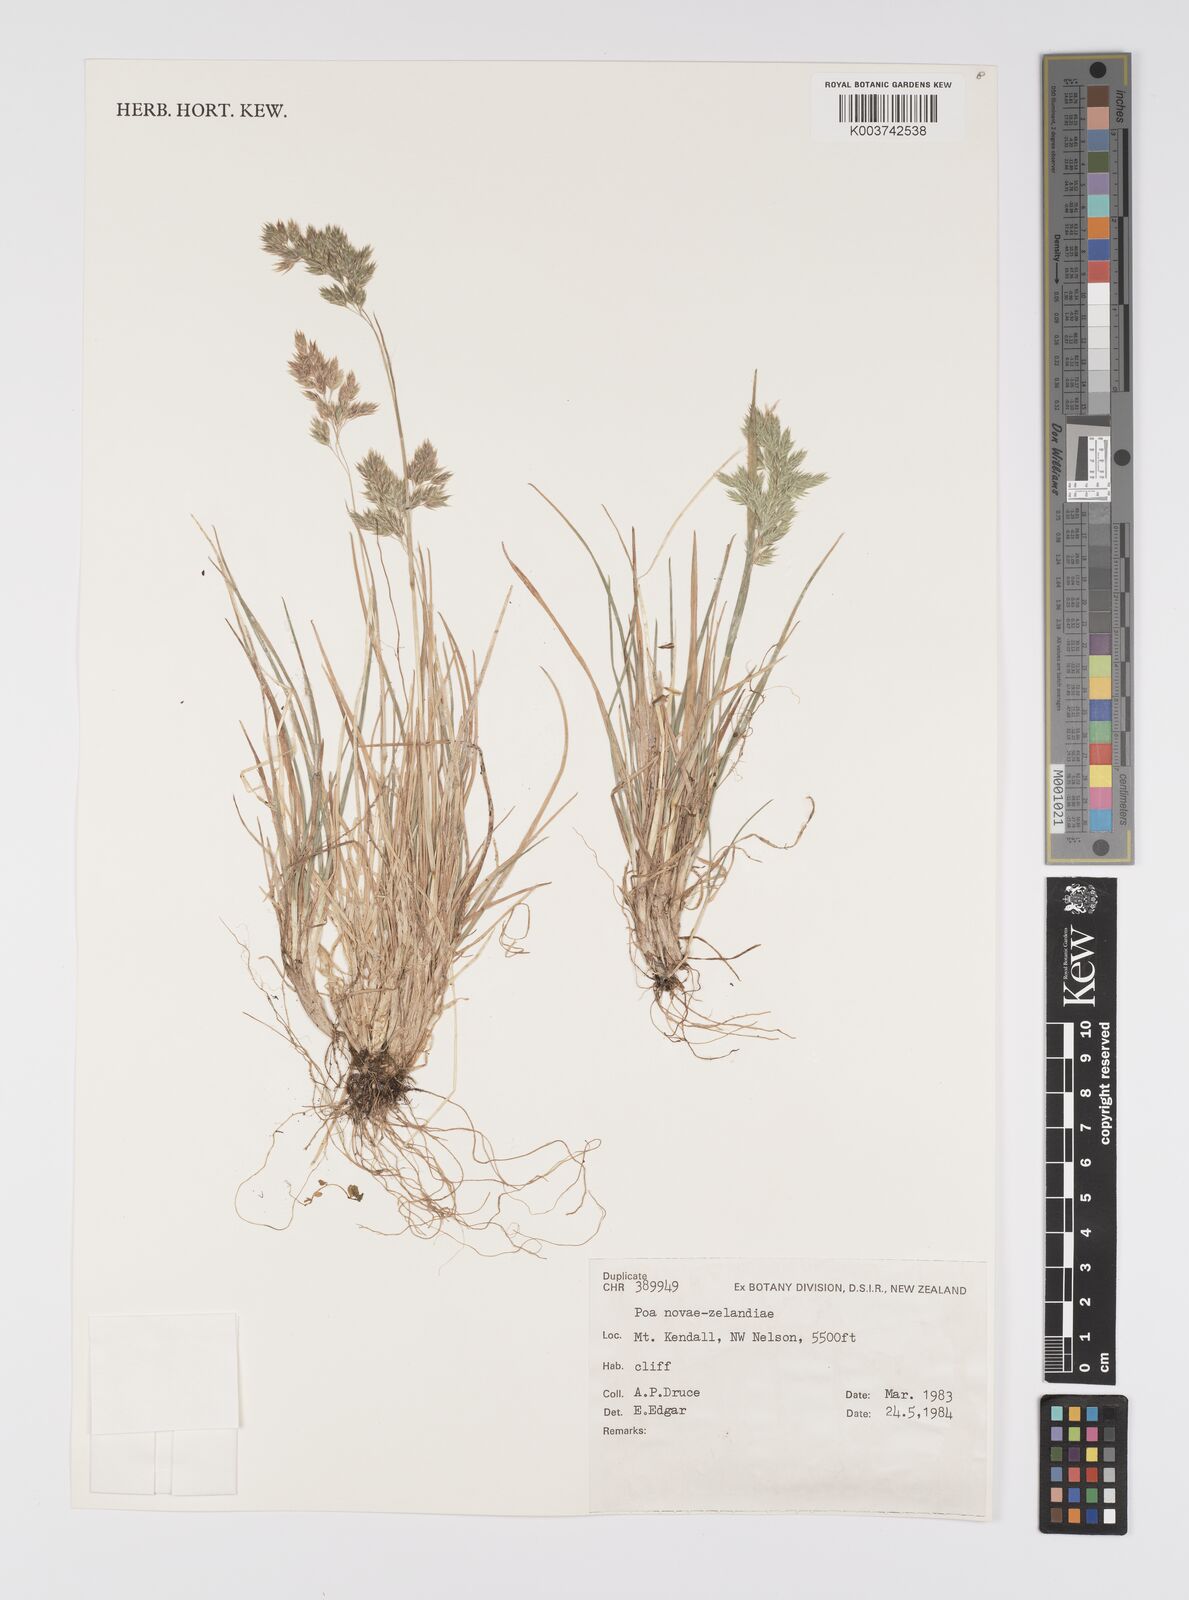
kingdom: Plantae
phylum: Tracheophyta
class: Liliopsida
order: Poales
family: Poaceae
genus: Poa
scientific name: Poa novae-zelandiae
